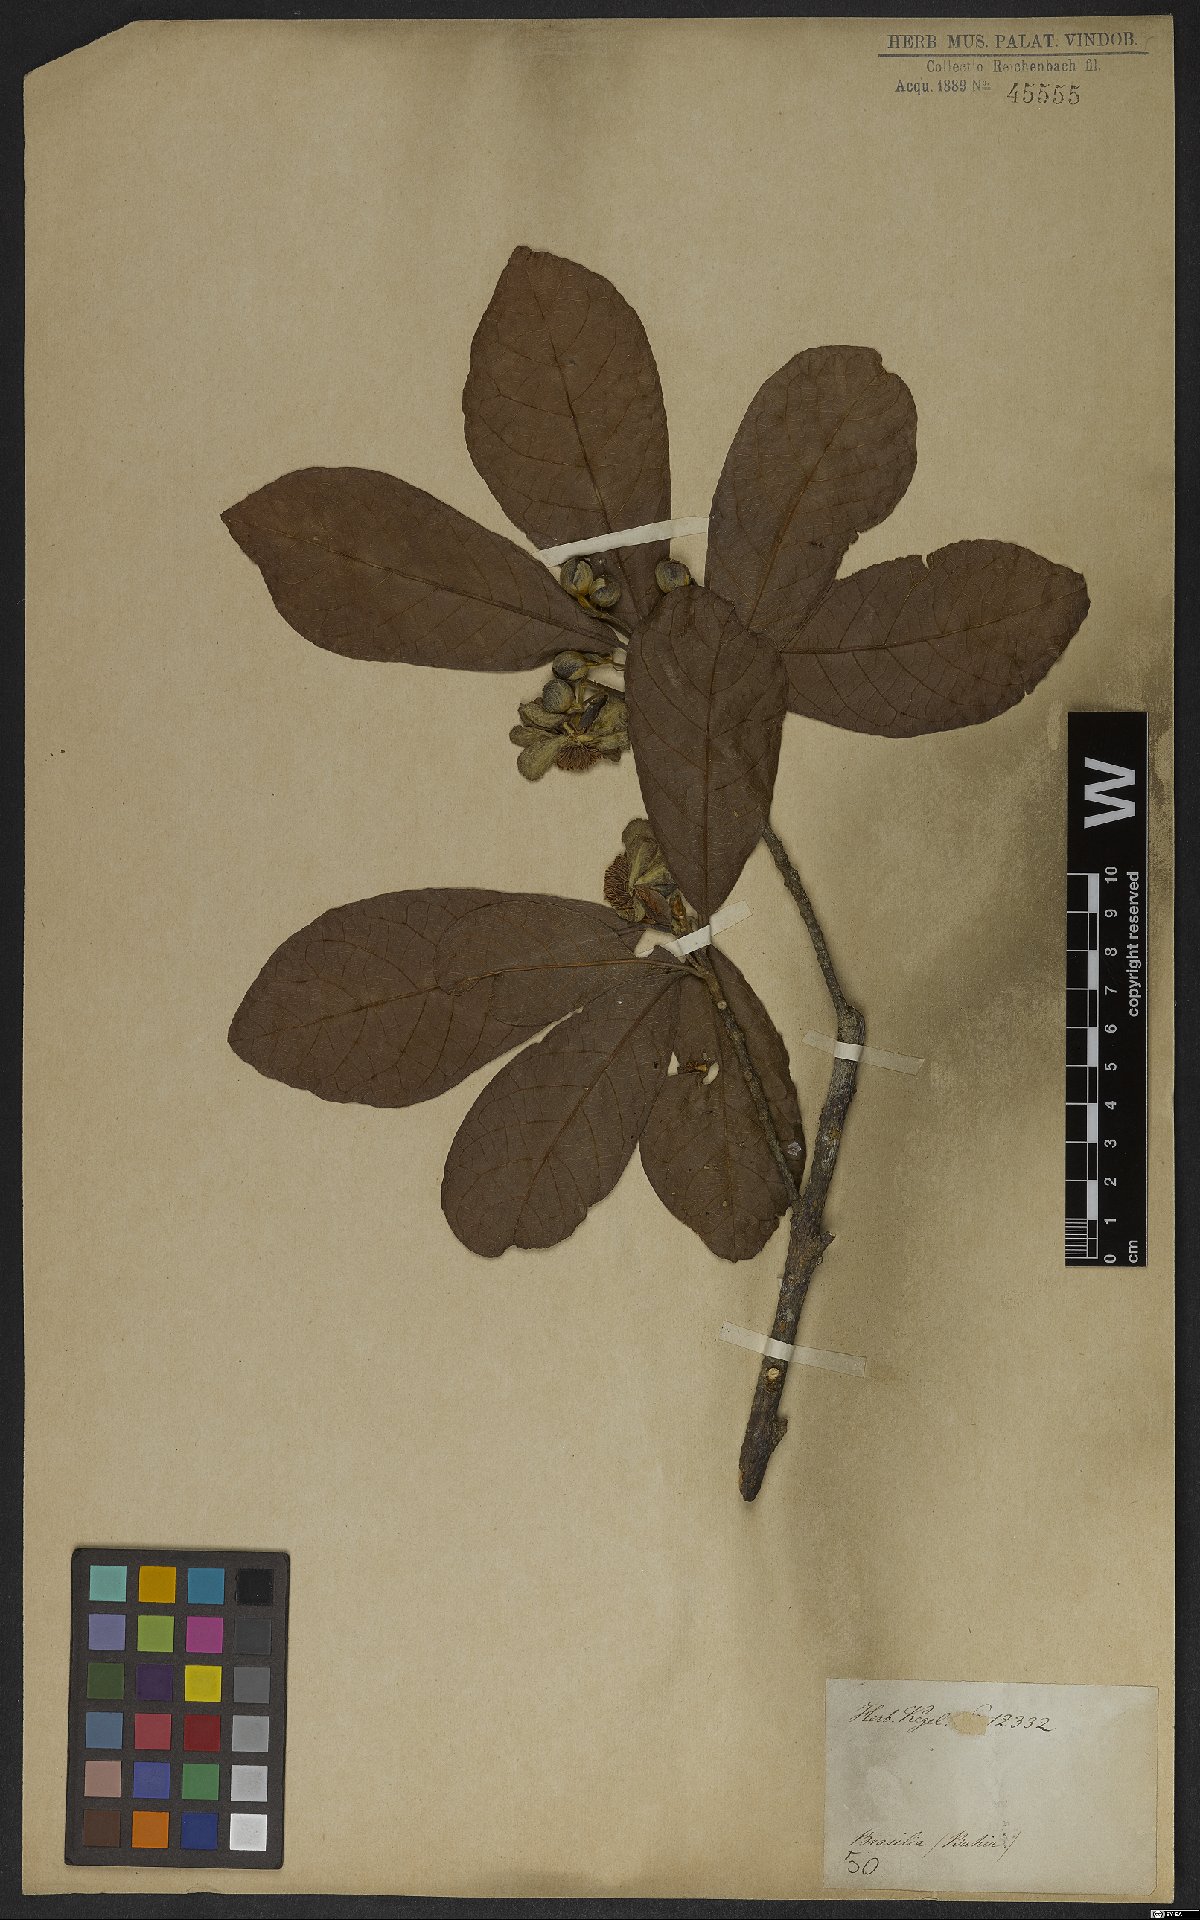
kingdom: Plantae
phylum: Tracheophyta
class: Magnoliopsida
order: Malpighiales
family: Achariaceae
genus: Carpotroche
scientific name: Carpotroche brasiliensis
